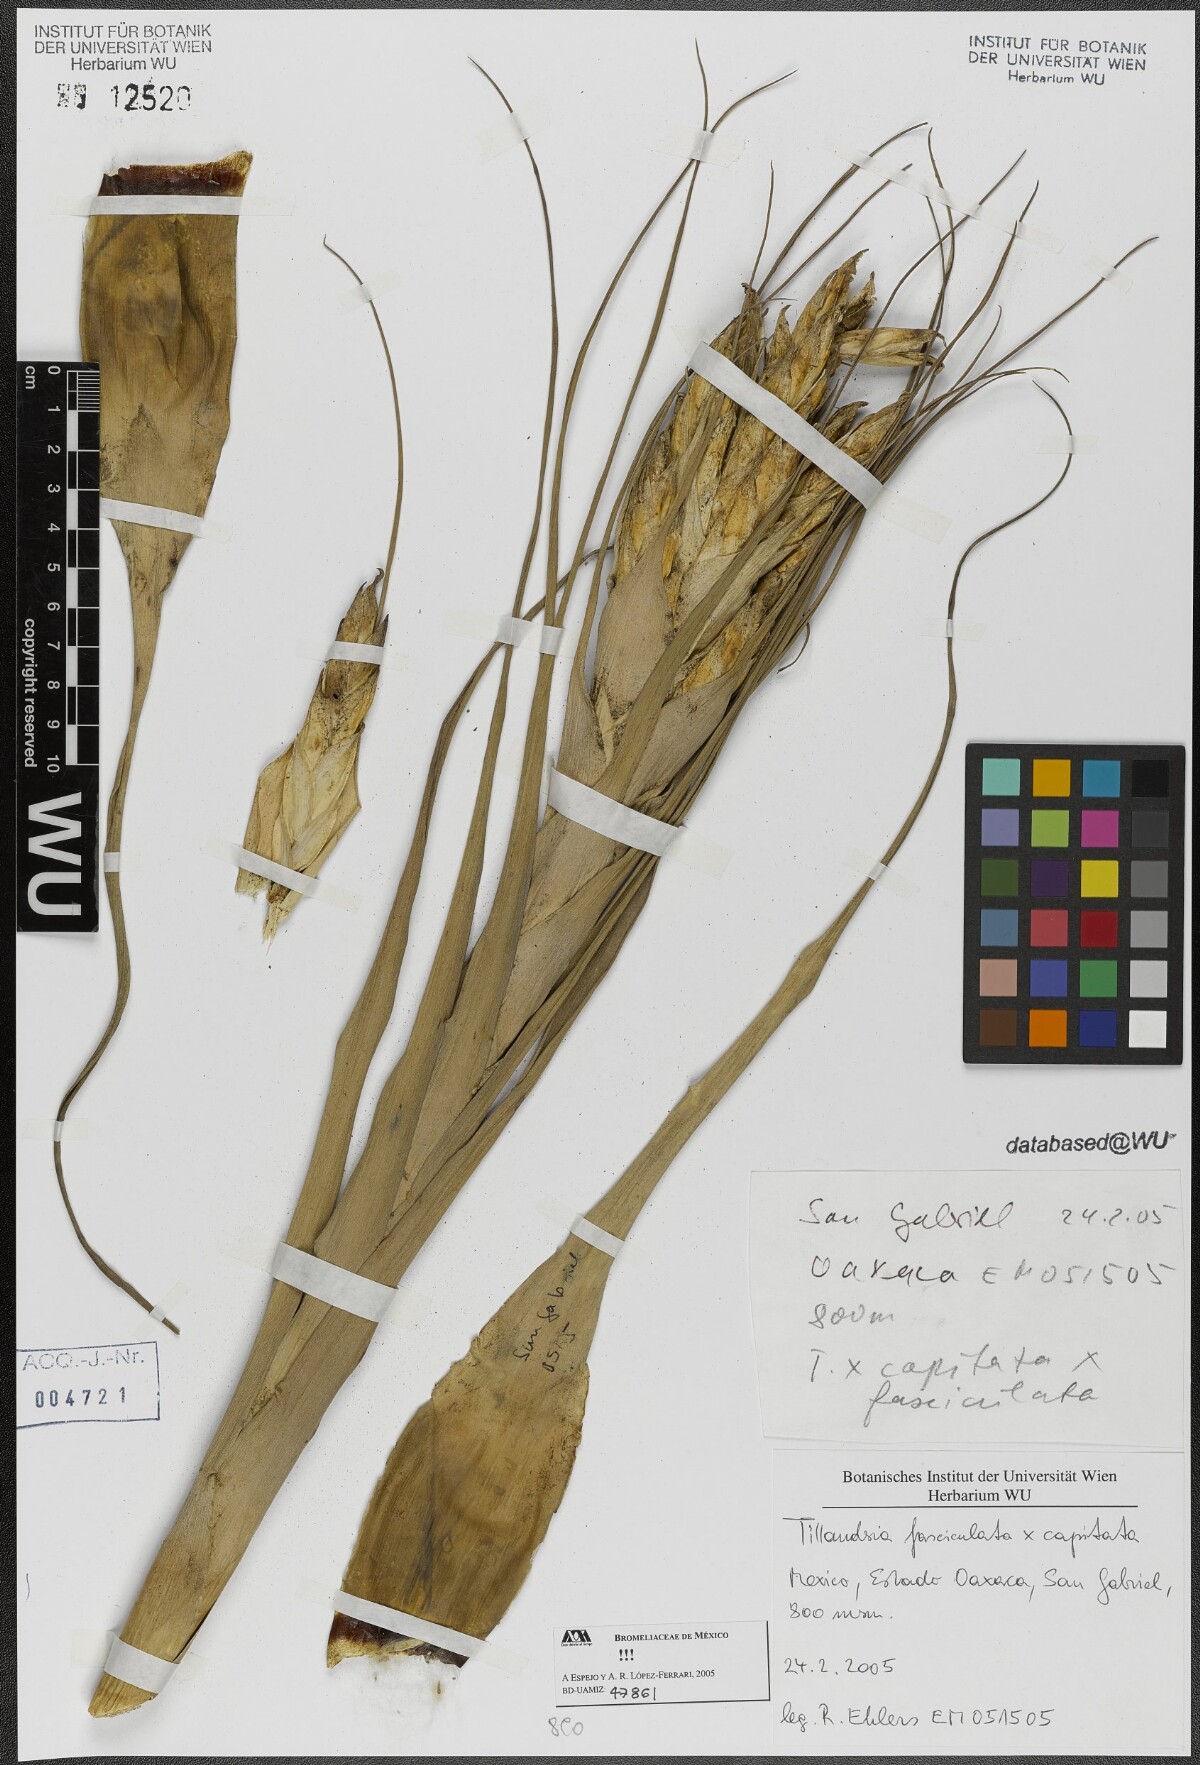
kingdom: Plantae
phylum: Tracheophyta
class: Liliopsida
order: Poales
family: Bromeliaceae
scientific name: Bromeliaceae
